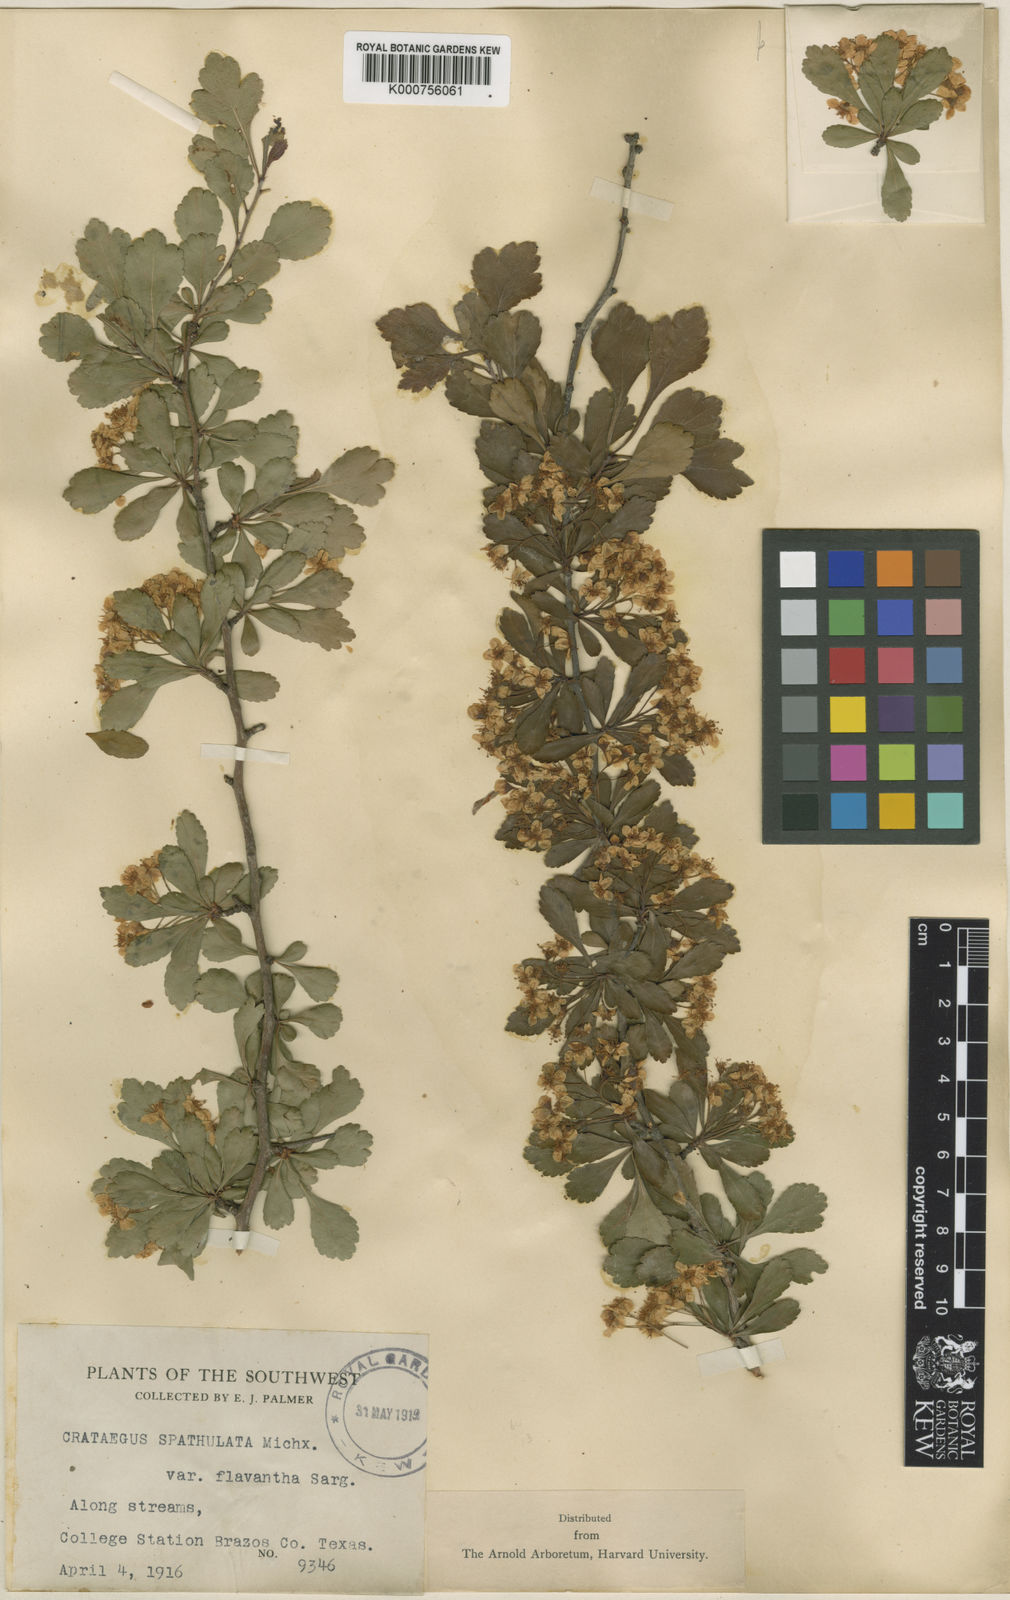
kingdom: Plantae
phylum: Tracheophyta
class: Magnoliopsida
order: Rosales
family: Rosaceae
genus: Crataegus
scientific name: Crataegus spathulata
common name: Littlehip hawthorn
